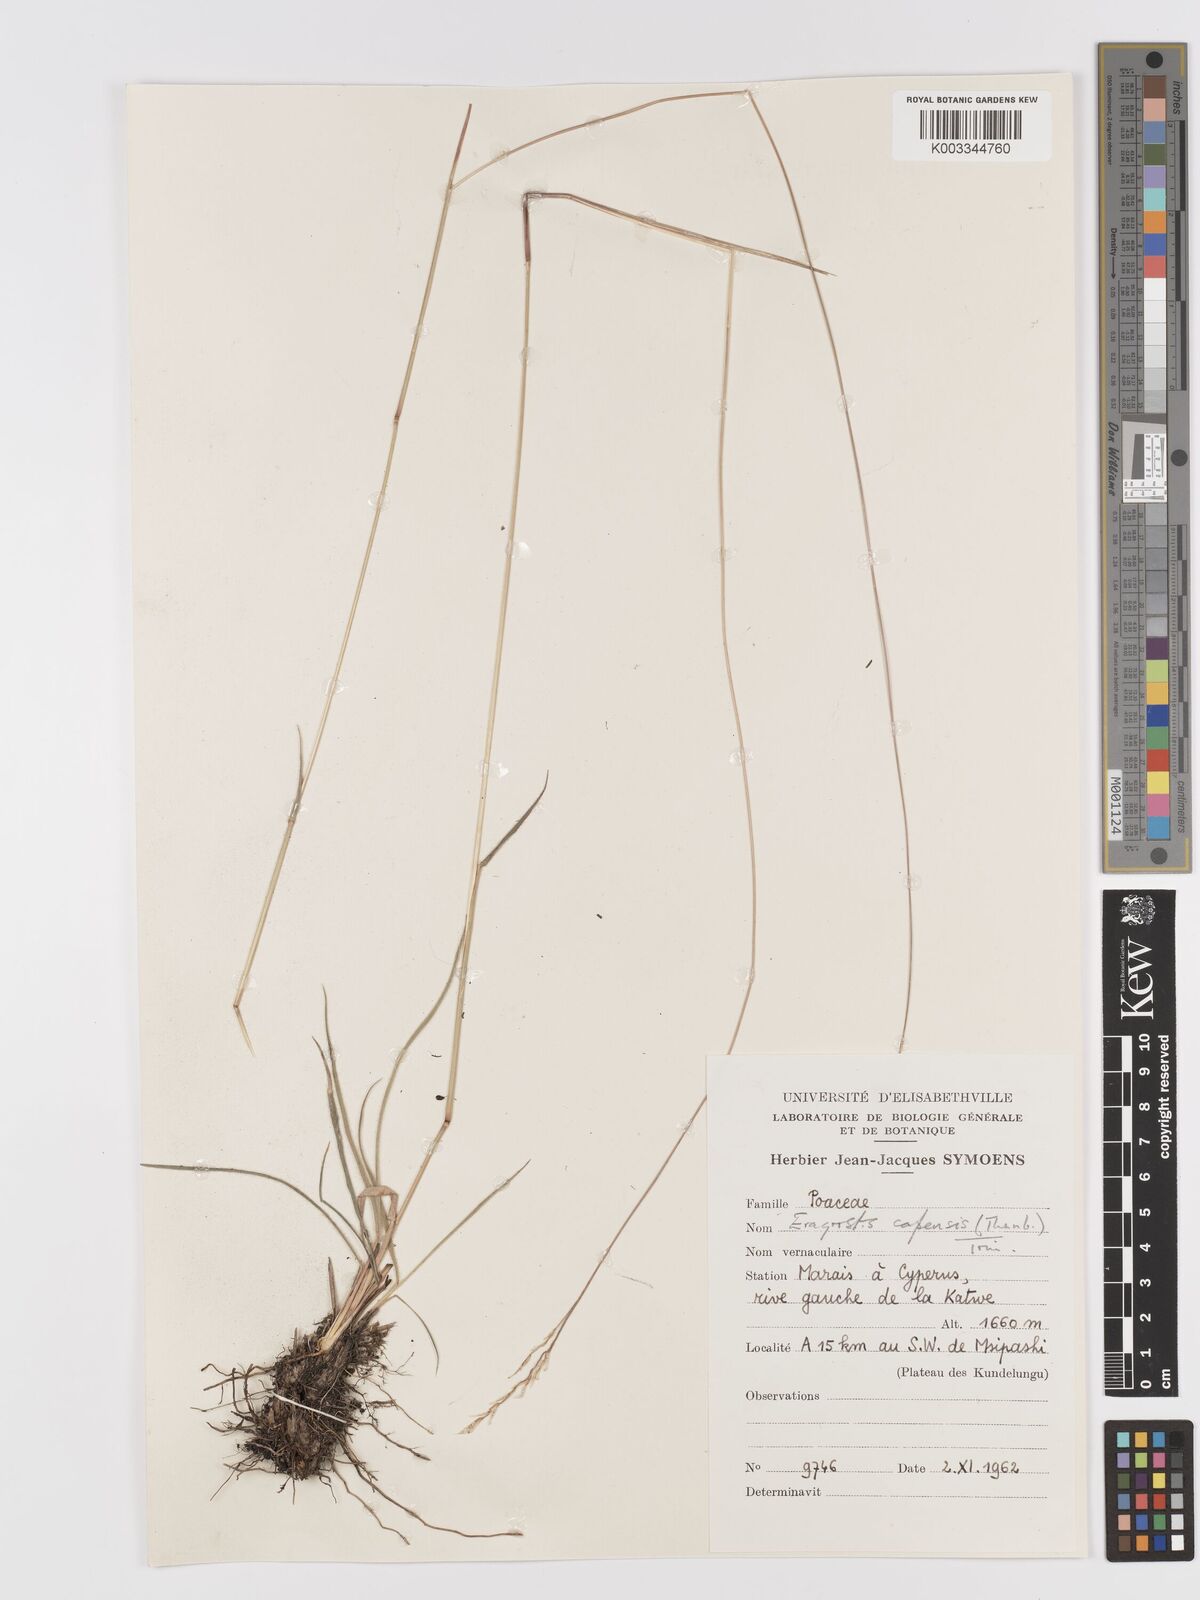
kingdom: Plantae
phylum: Tracheophyta
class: Liliopsida
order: Poales
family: Poaceae
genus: Eragrostis
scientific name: Eragrostis capensis
